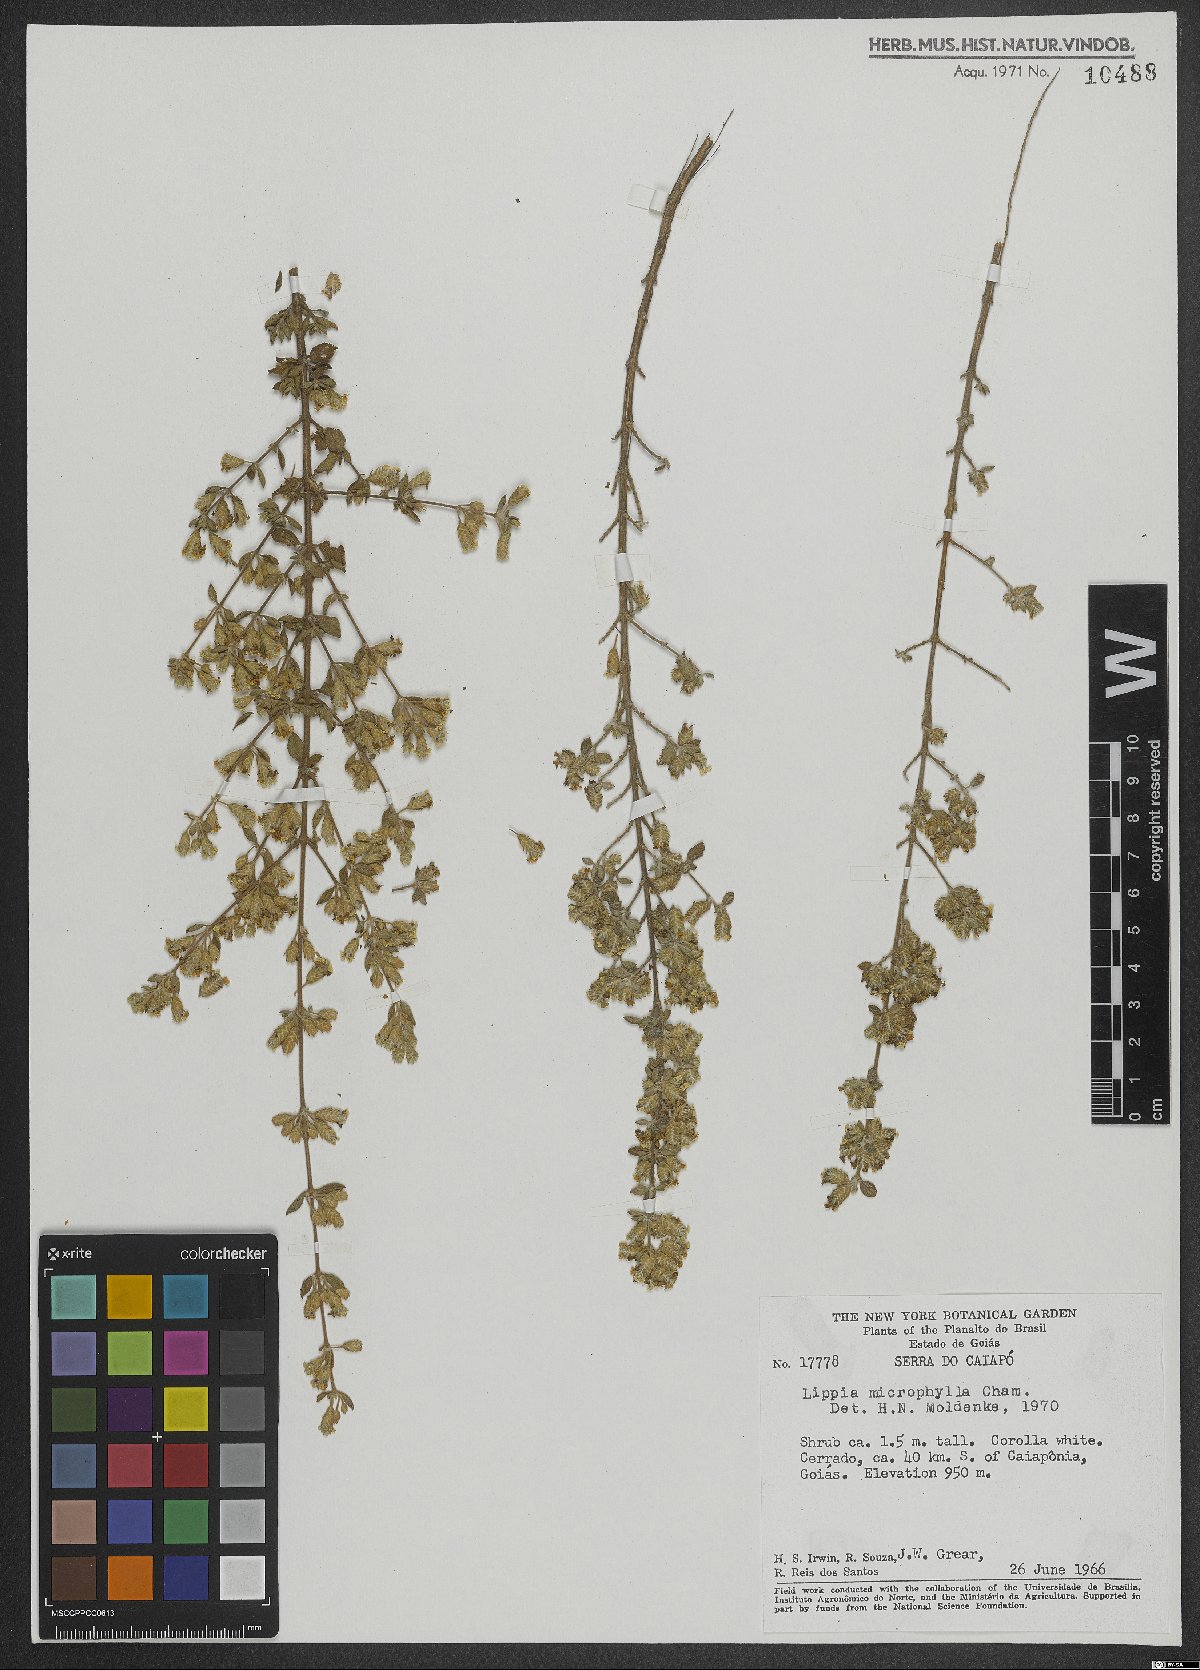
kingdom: Plantae
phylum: Tracheophyta
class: Magnoliopsida
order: Lamiales
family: Verbenaceae
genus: Lippia
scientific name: Lippia origanoides
